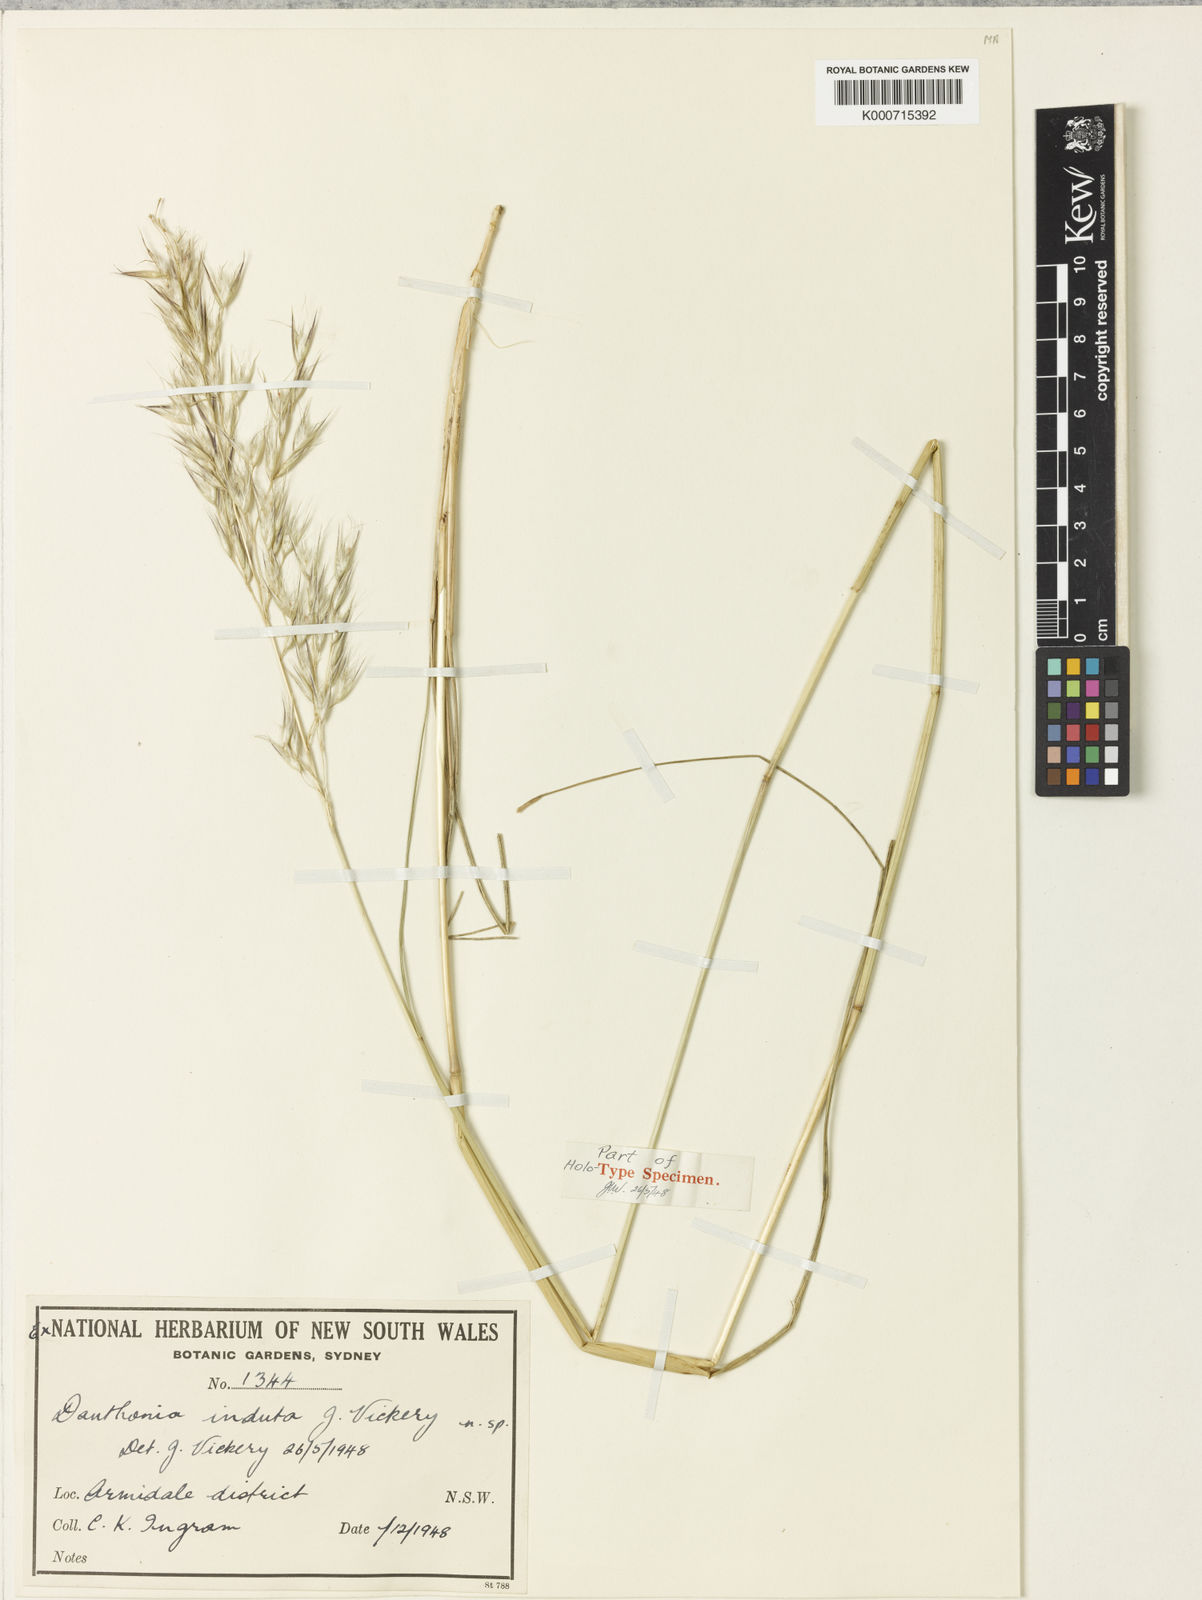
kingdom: Plantae
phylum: Tracheophyta
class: Liliopsida
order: Poales
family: Poaceae
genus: Rytidosperma
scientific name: Rytidosperma indutum
